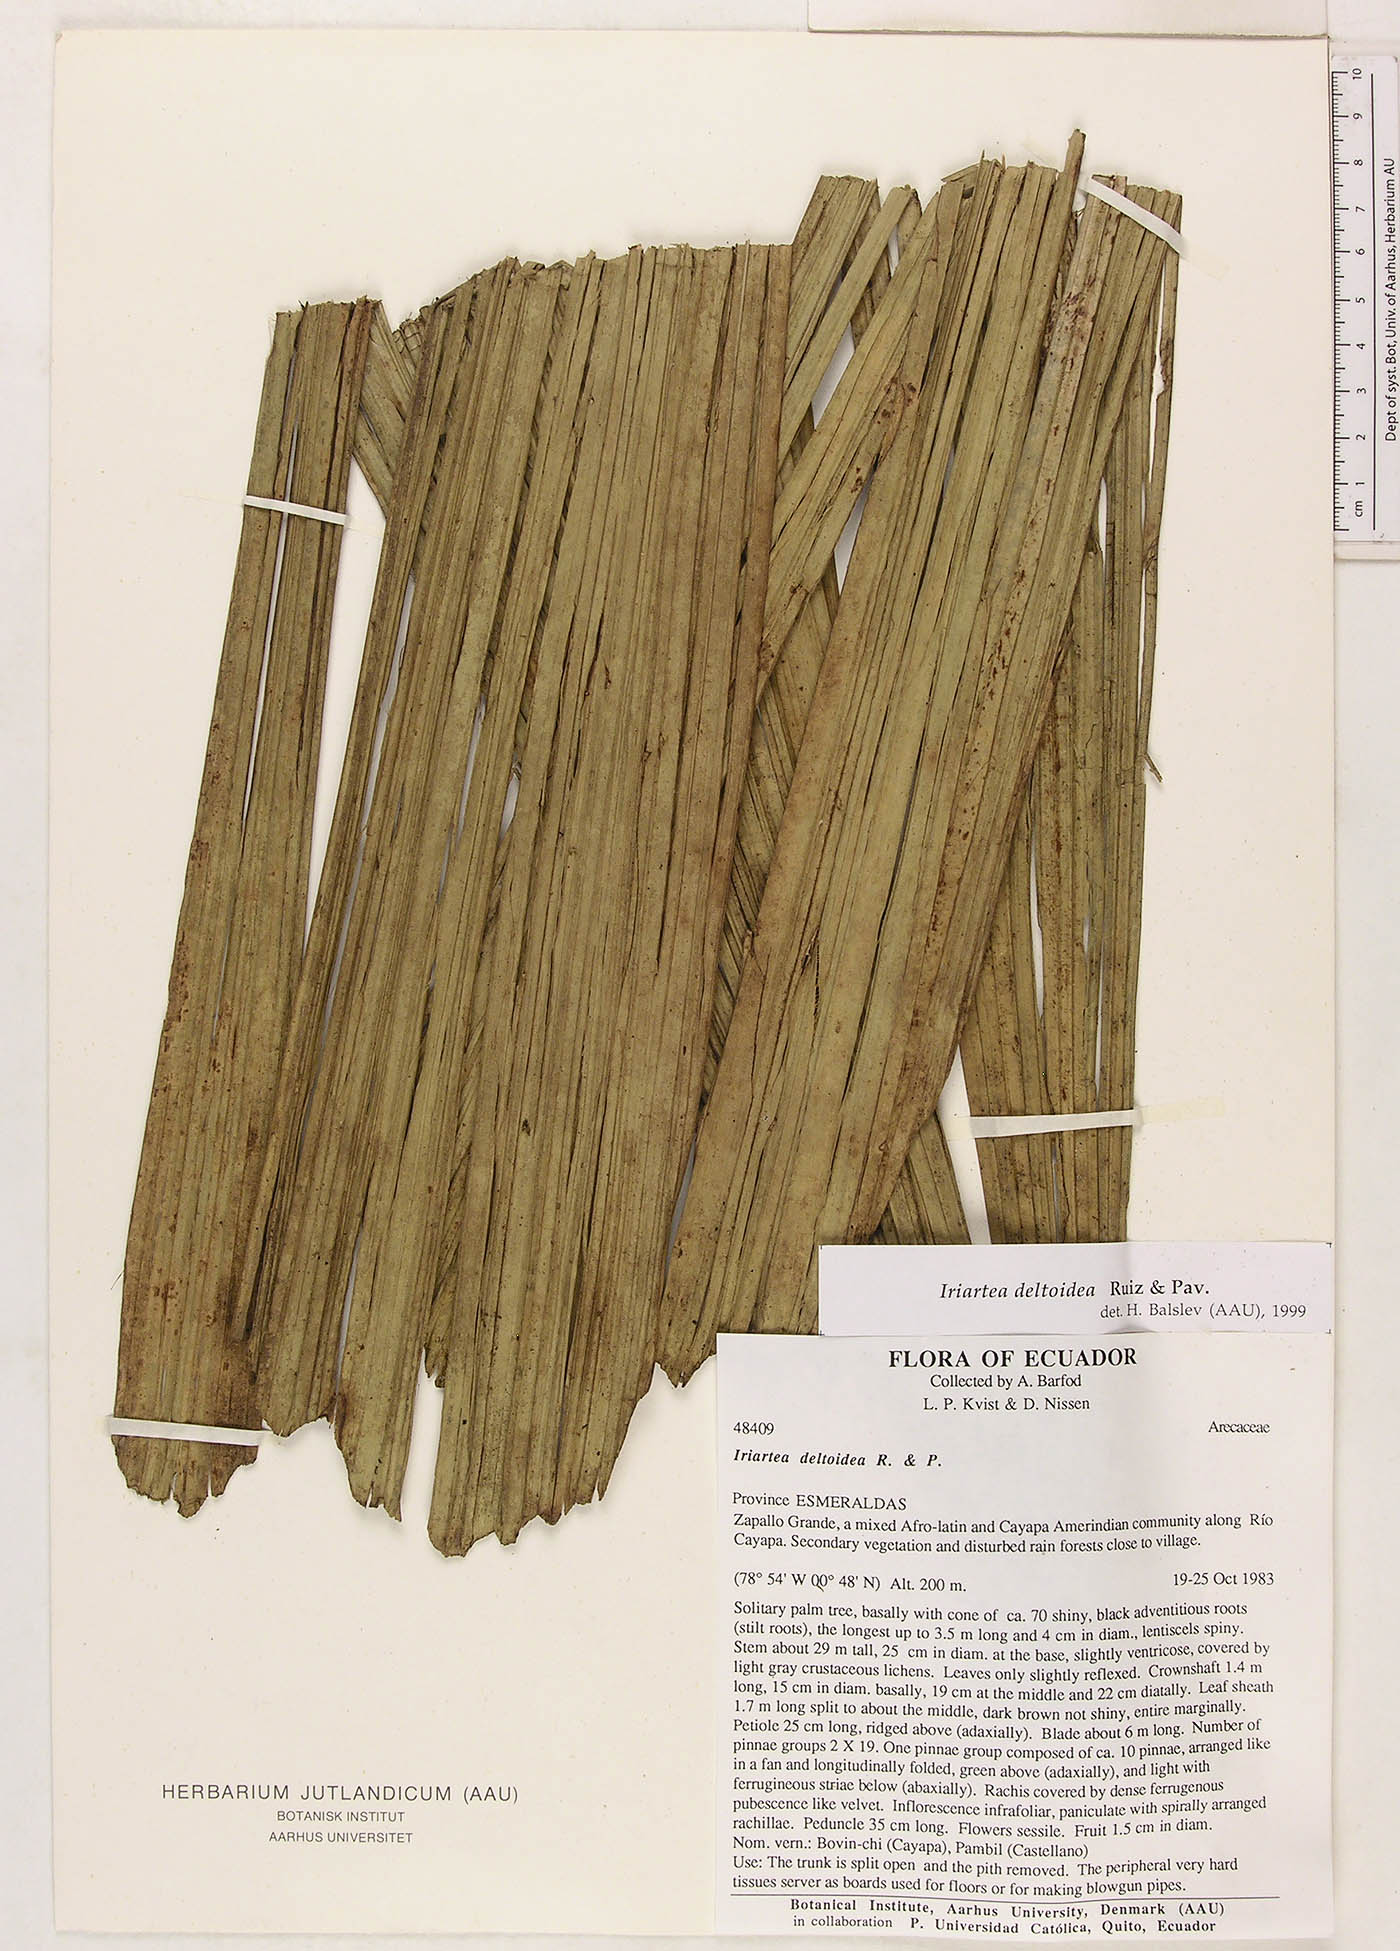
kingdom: Plantae
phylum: Tracheophyta
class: Liliopsida
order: Arecales
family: Arecaceae
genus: Iriartea
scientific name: Iriartea deltoidea
